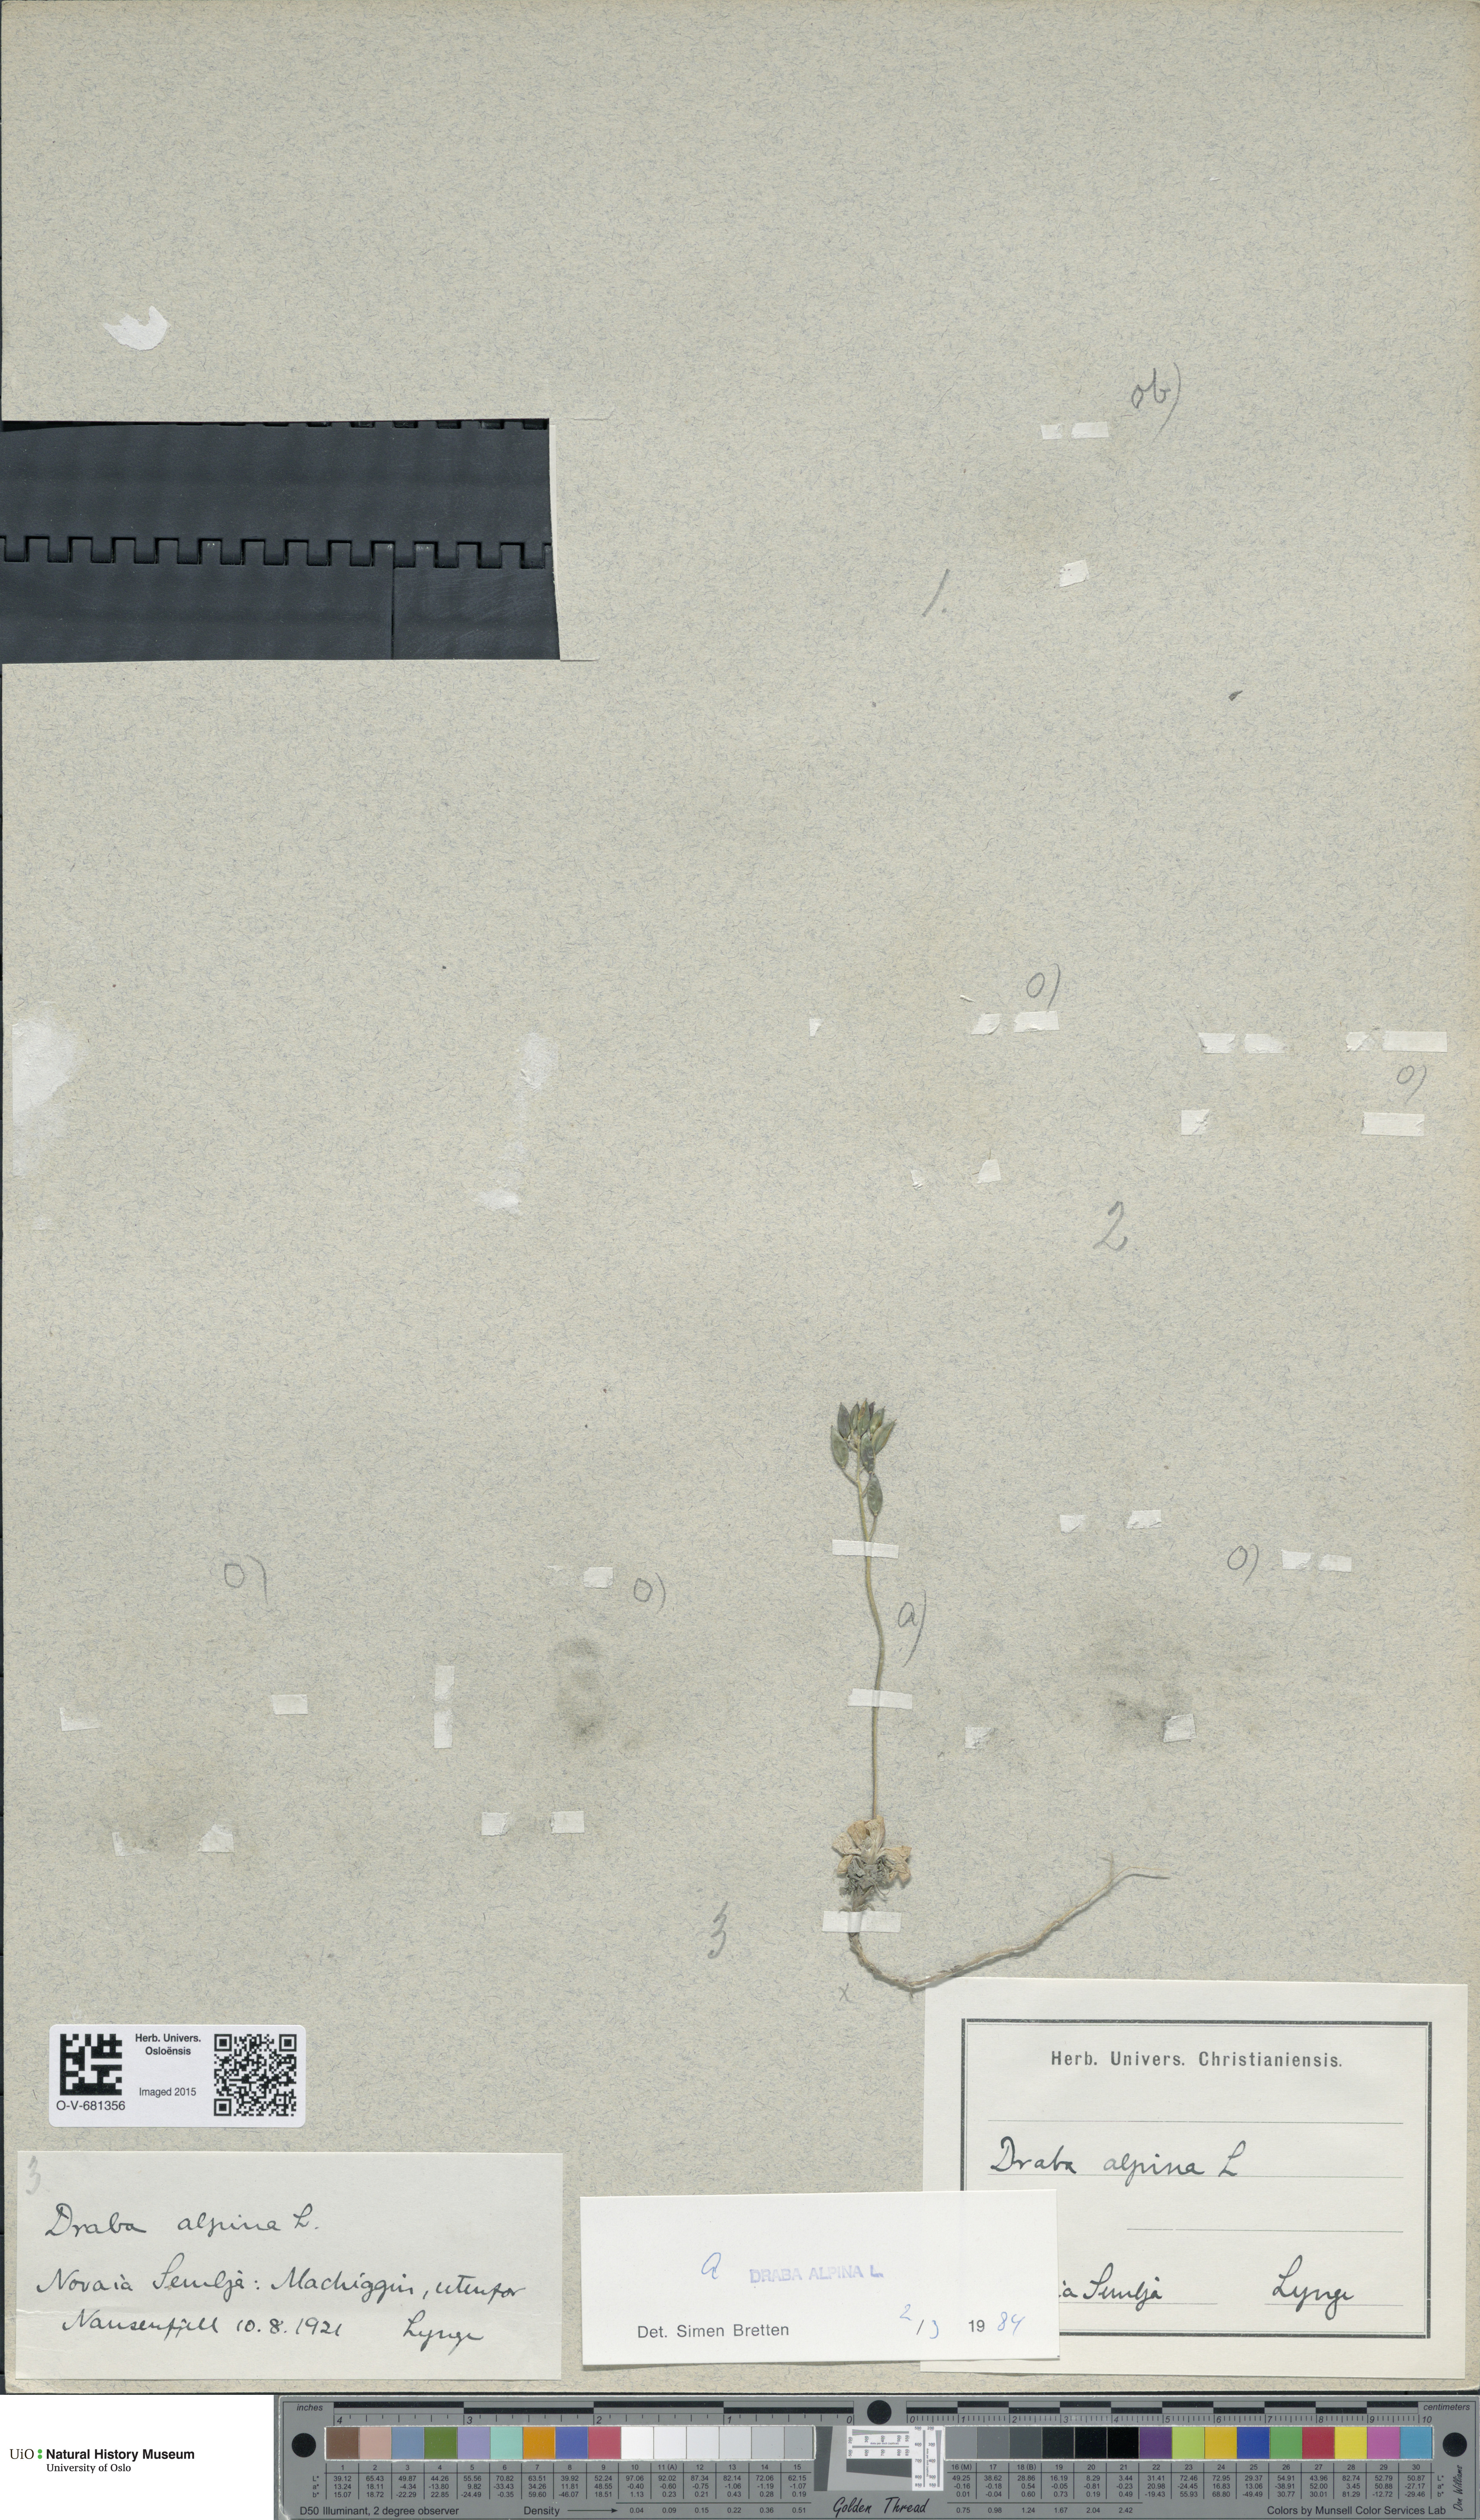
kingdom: Plantae
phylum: Tracheophyta
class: Magnoliopsida
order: Brassicales
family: Brassicaceae
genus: Draba
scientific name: Draba alpina
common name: Alpine draba
